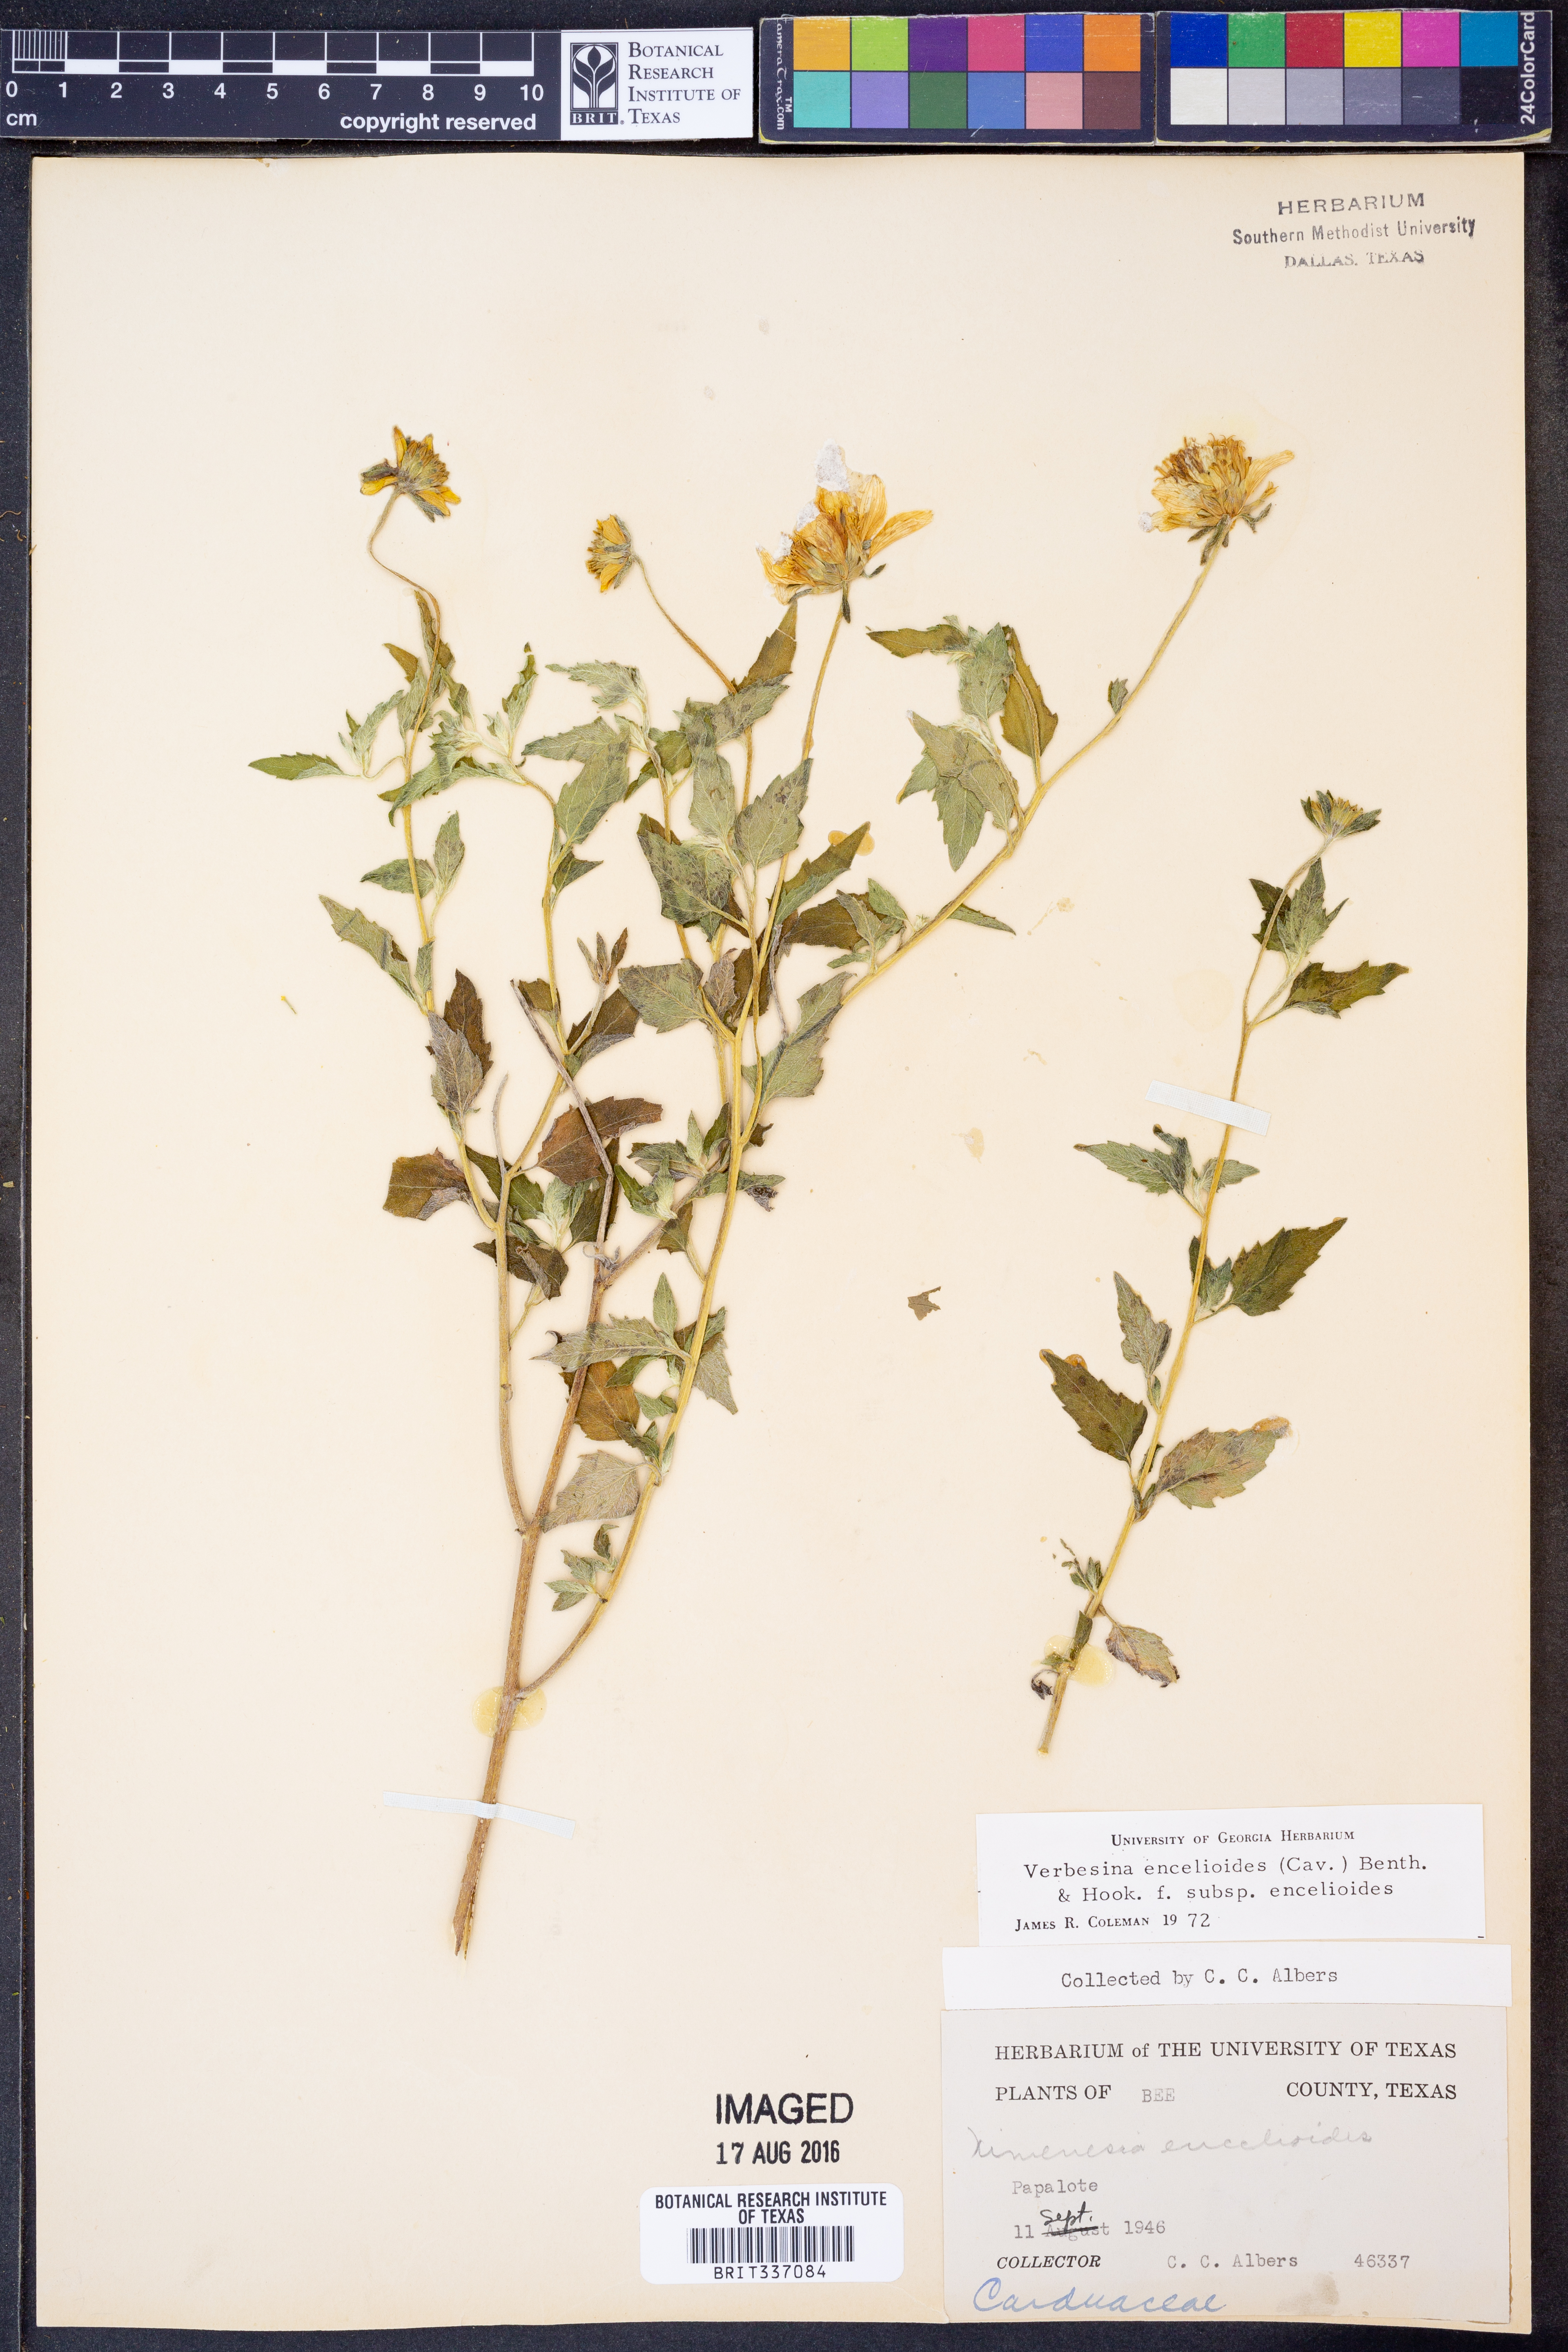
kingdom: Plantae
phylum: Tracheophyta
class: Magnoliopsida
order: Asterales
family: Asteraceae
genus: Verbesina
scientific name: Verbesina encelioides
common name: Golden crownbeard
